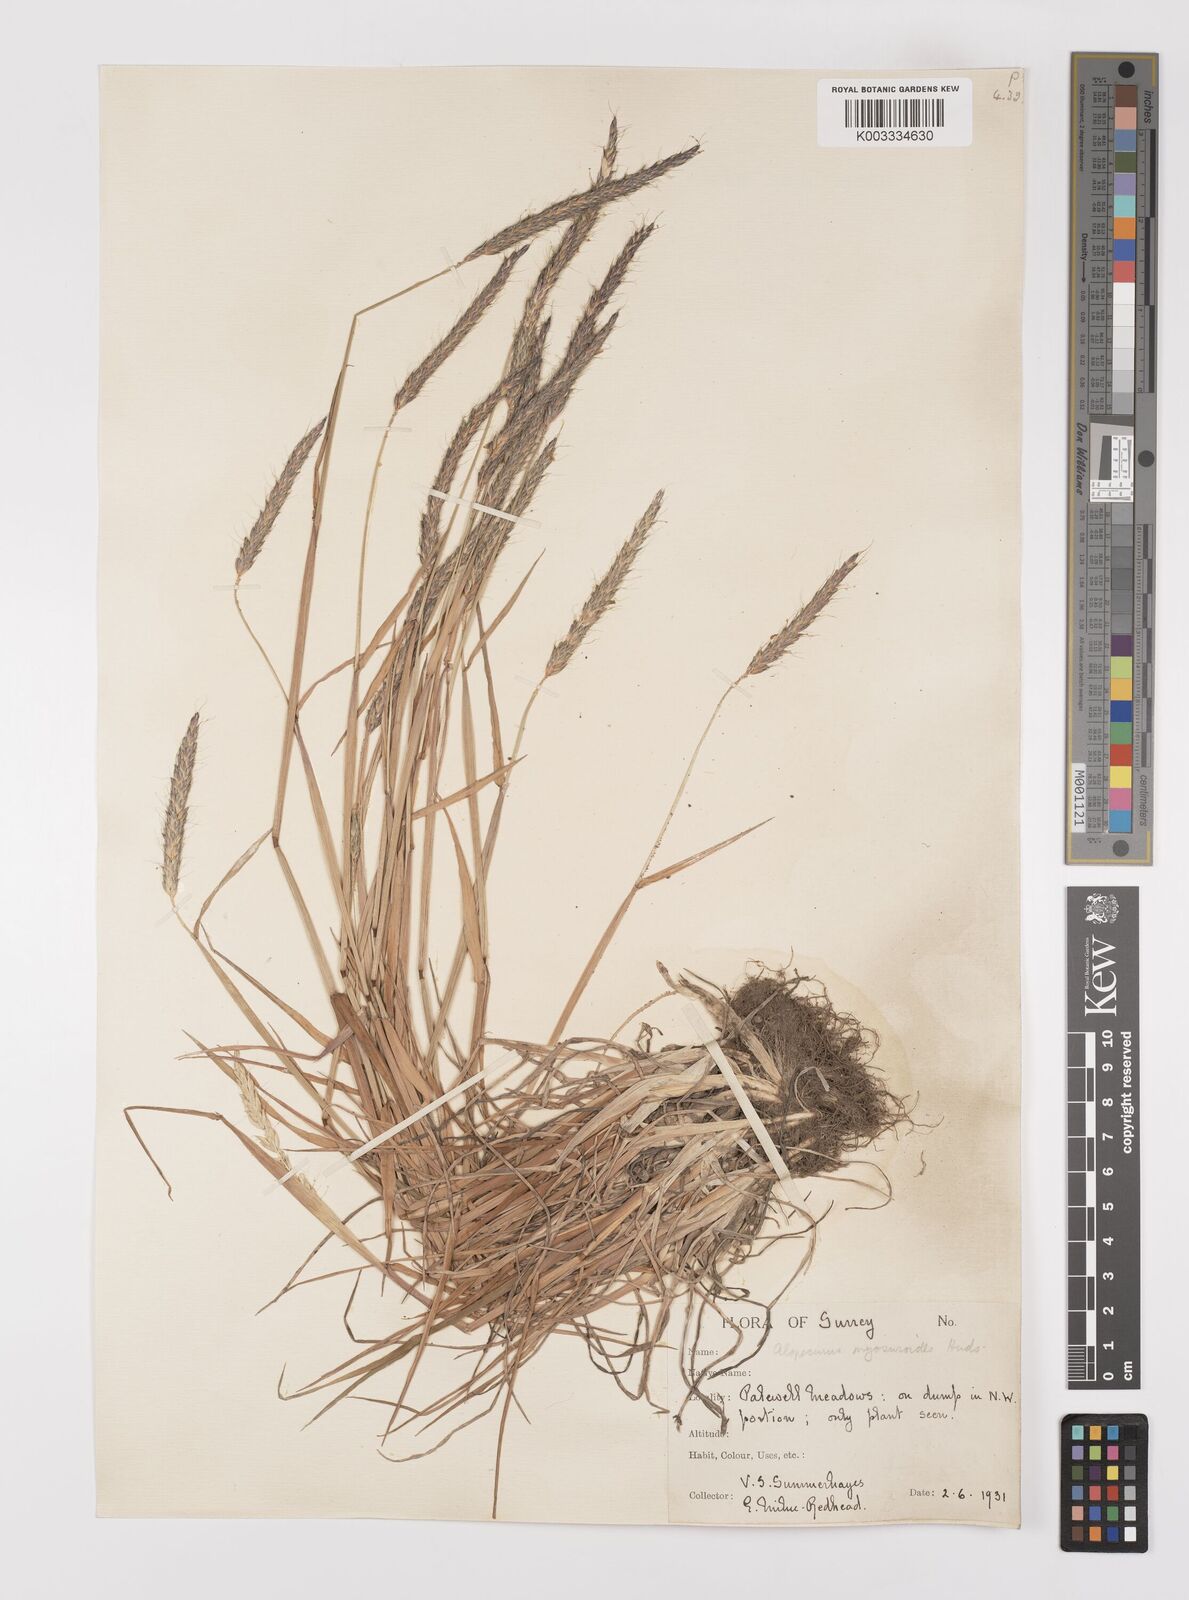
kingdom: Plantae
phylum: Tracheophyta
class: Liliopsida
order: Poales
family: Poaceae
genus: Alopecurus
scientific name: Alopecurus myosuroides
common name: Black-grass
